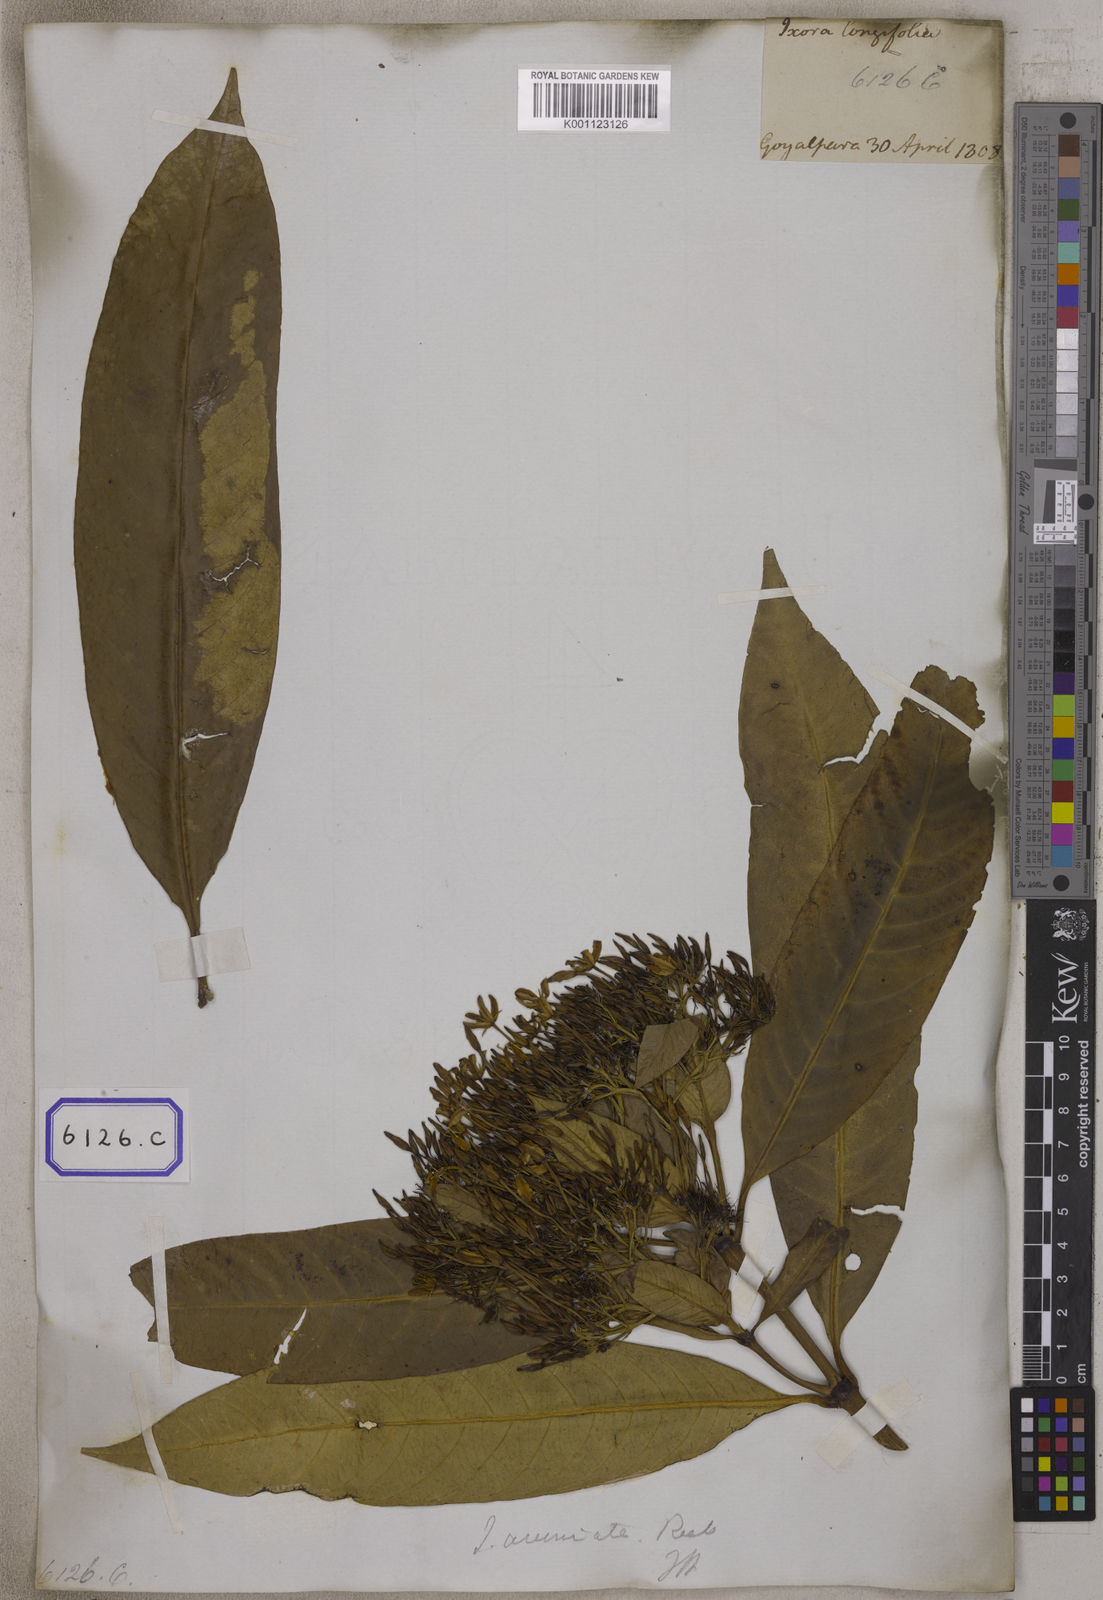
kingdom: Plantae
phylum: Tracheophyta
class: Magnoliopsida
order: Gentianales
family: Rubiaceae
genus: Ixora
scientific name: Ixora acuminata
